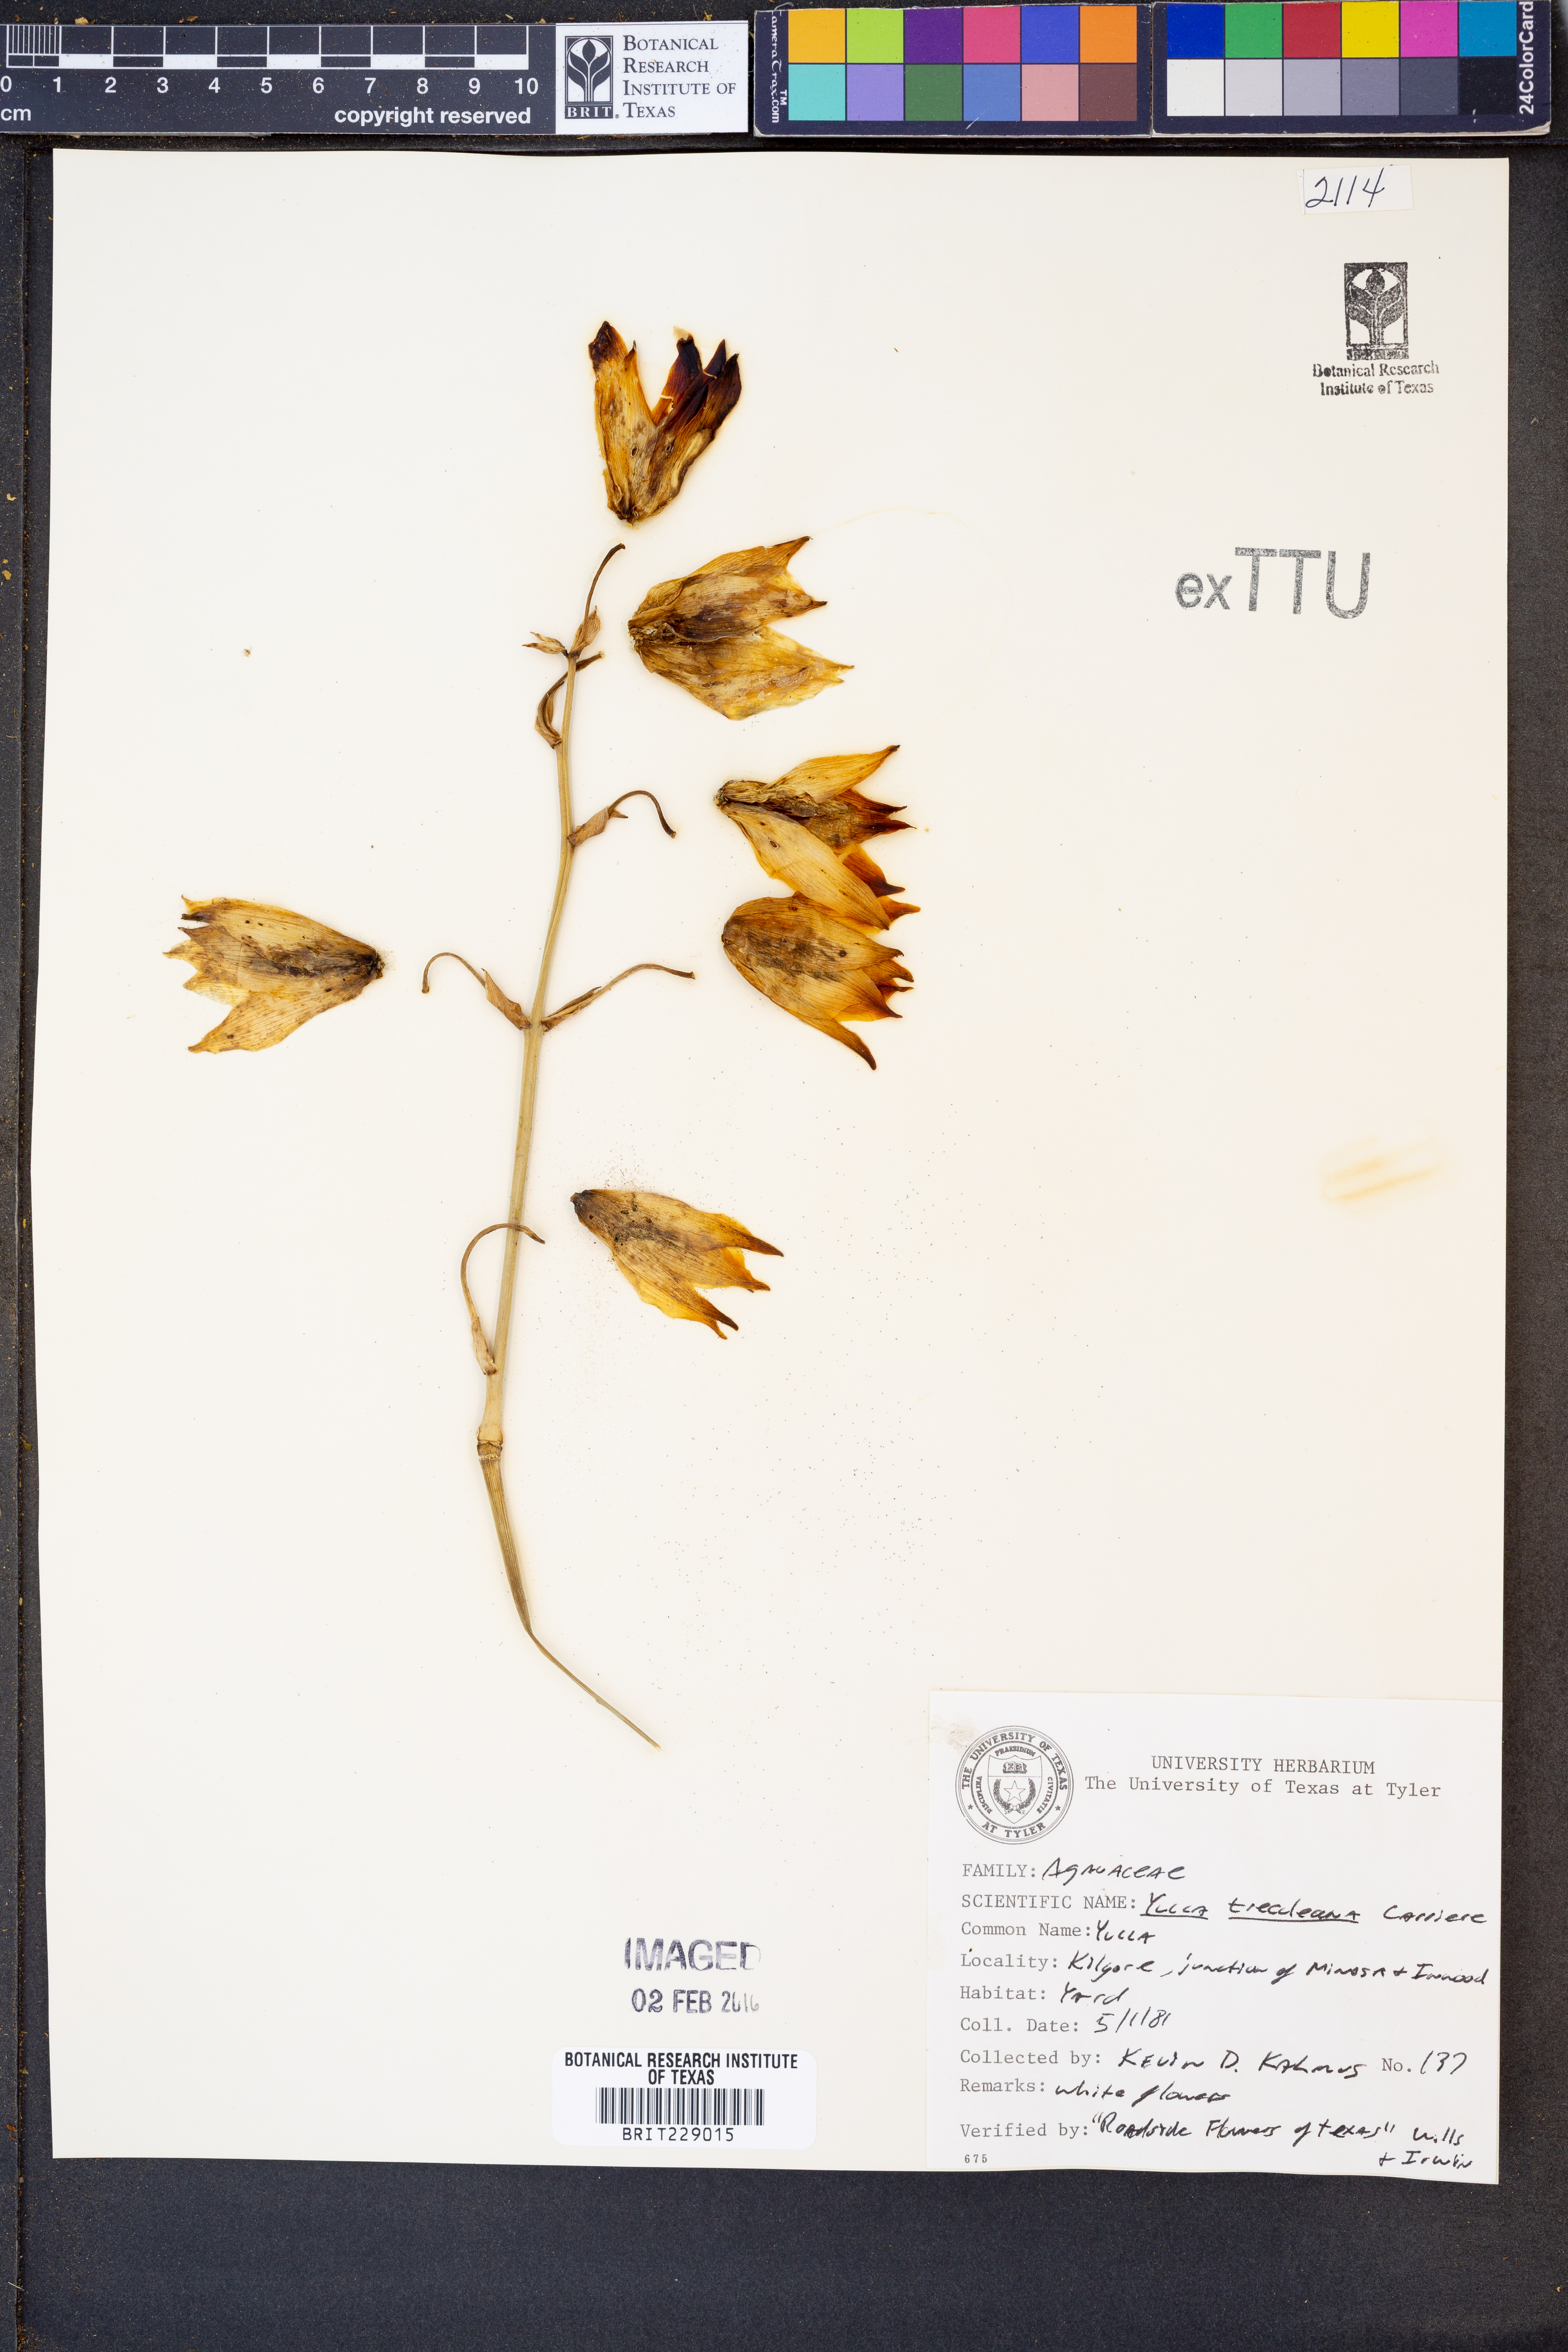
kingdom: Plantae
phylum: Tracheophyta
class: Liliopsida
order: Asparagales
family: Asparagaceae
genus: Yucca
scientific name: Yucca treculeana
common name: Spanish bayonet
